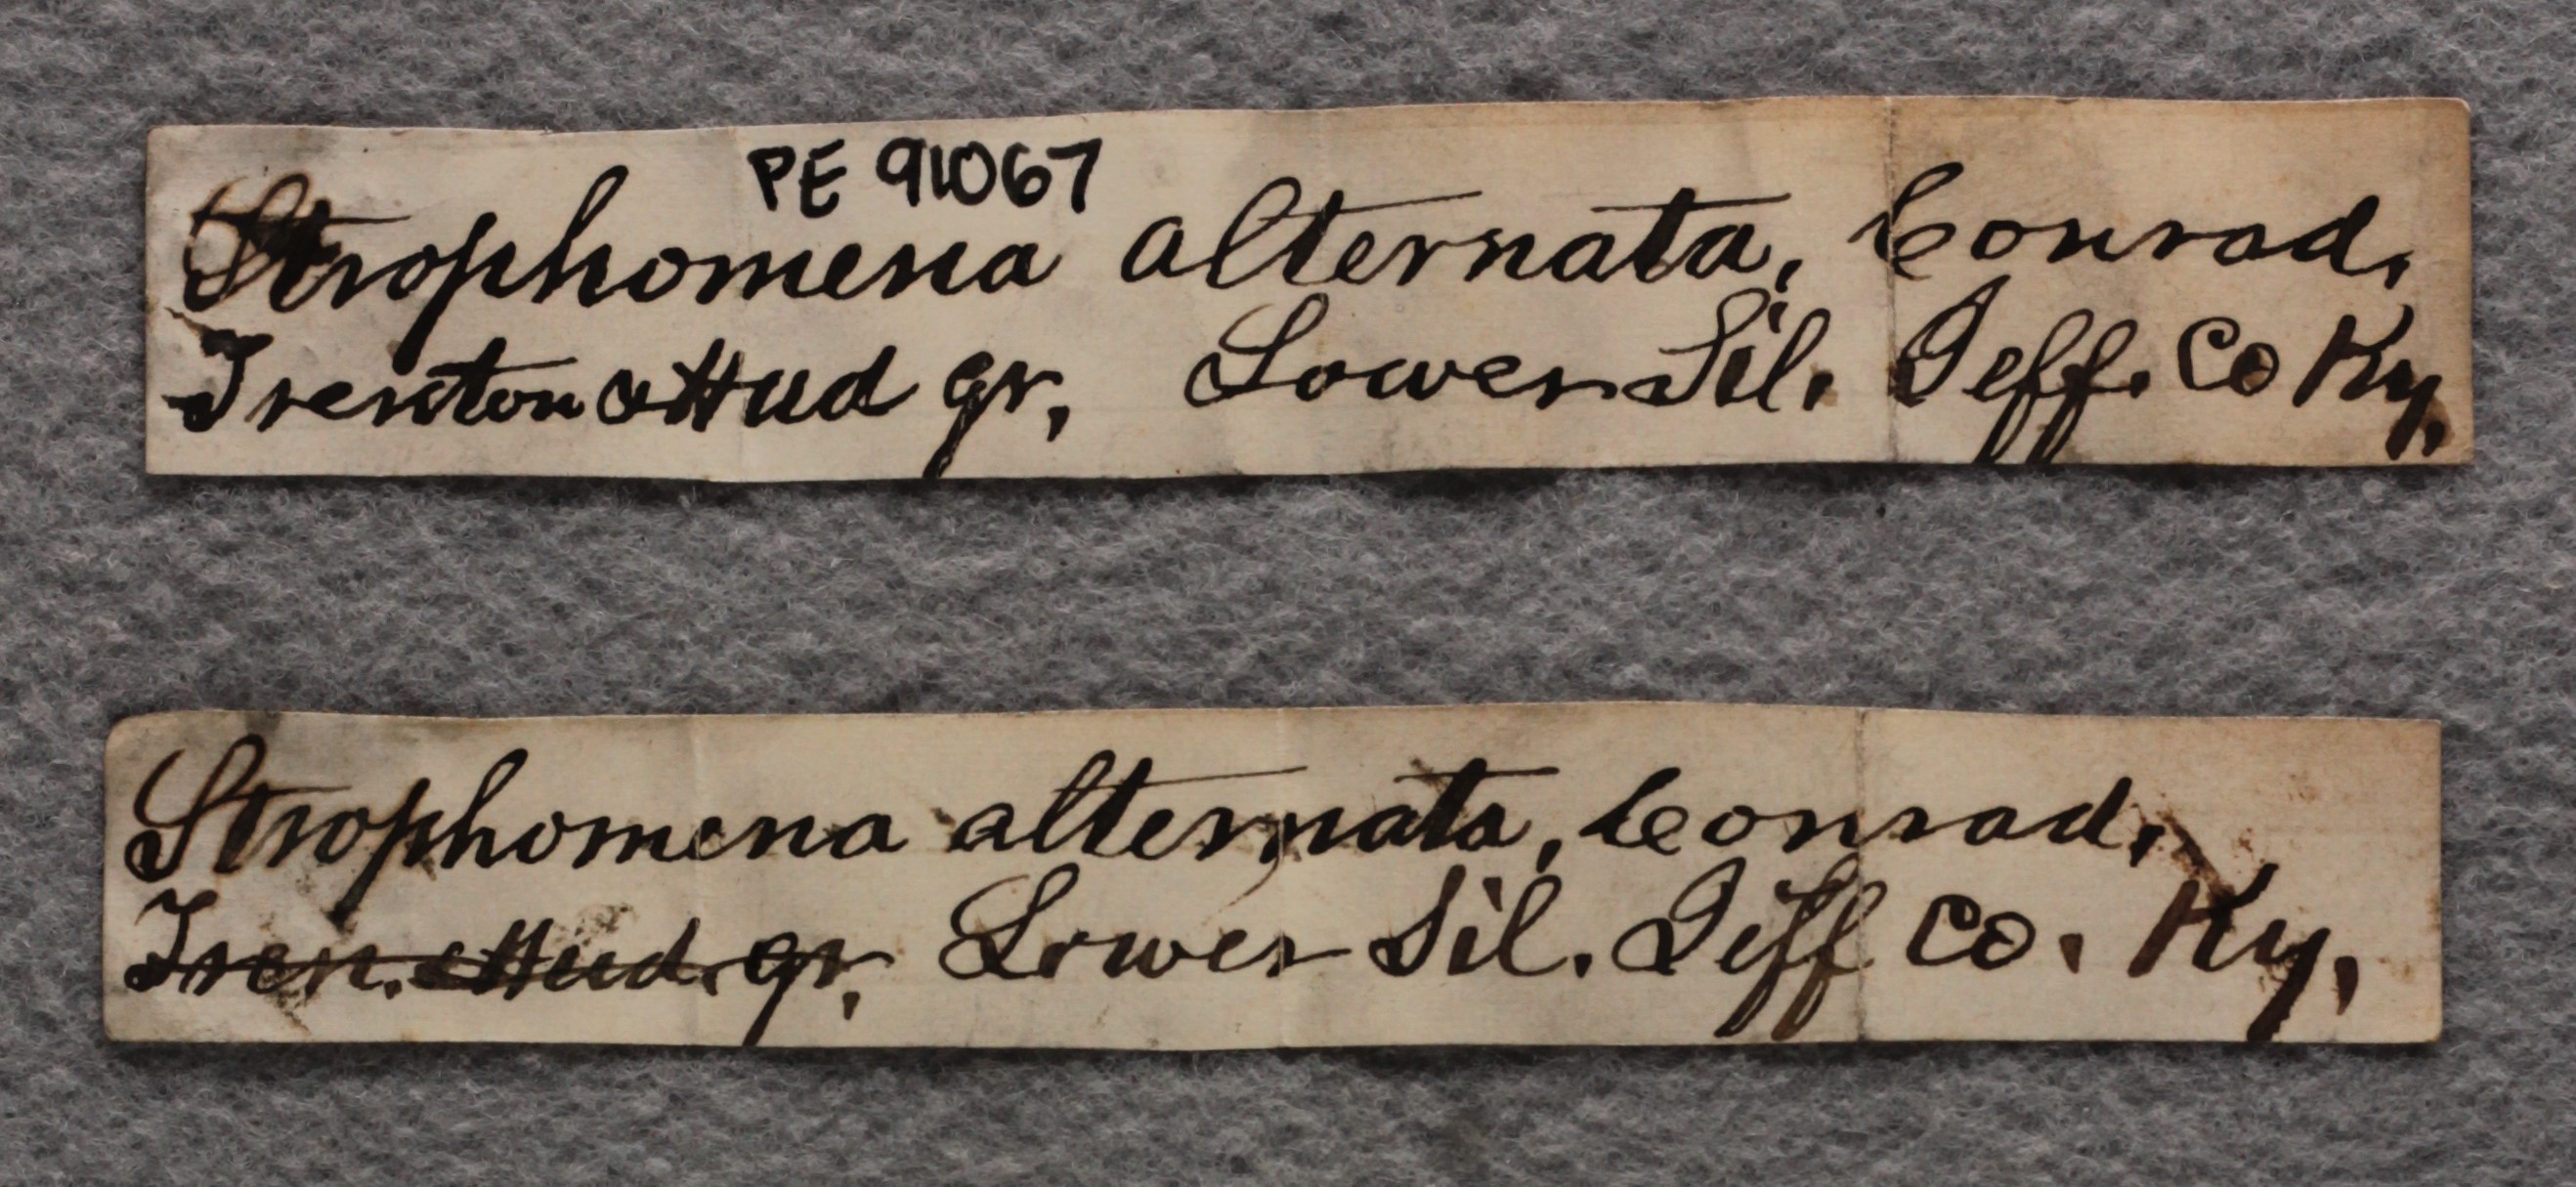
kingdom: Animalia
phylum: Brachiopoda
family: Strophomenidae
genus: Rafinesquina
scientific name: Rafinesquina Leptaena alternata
